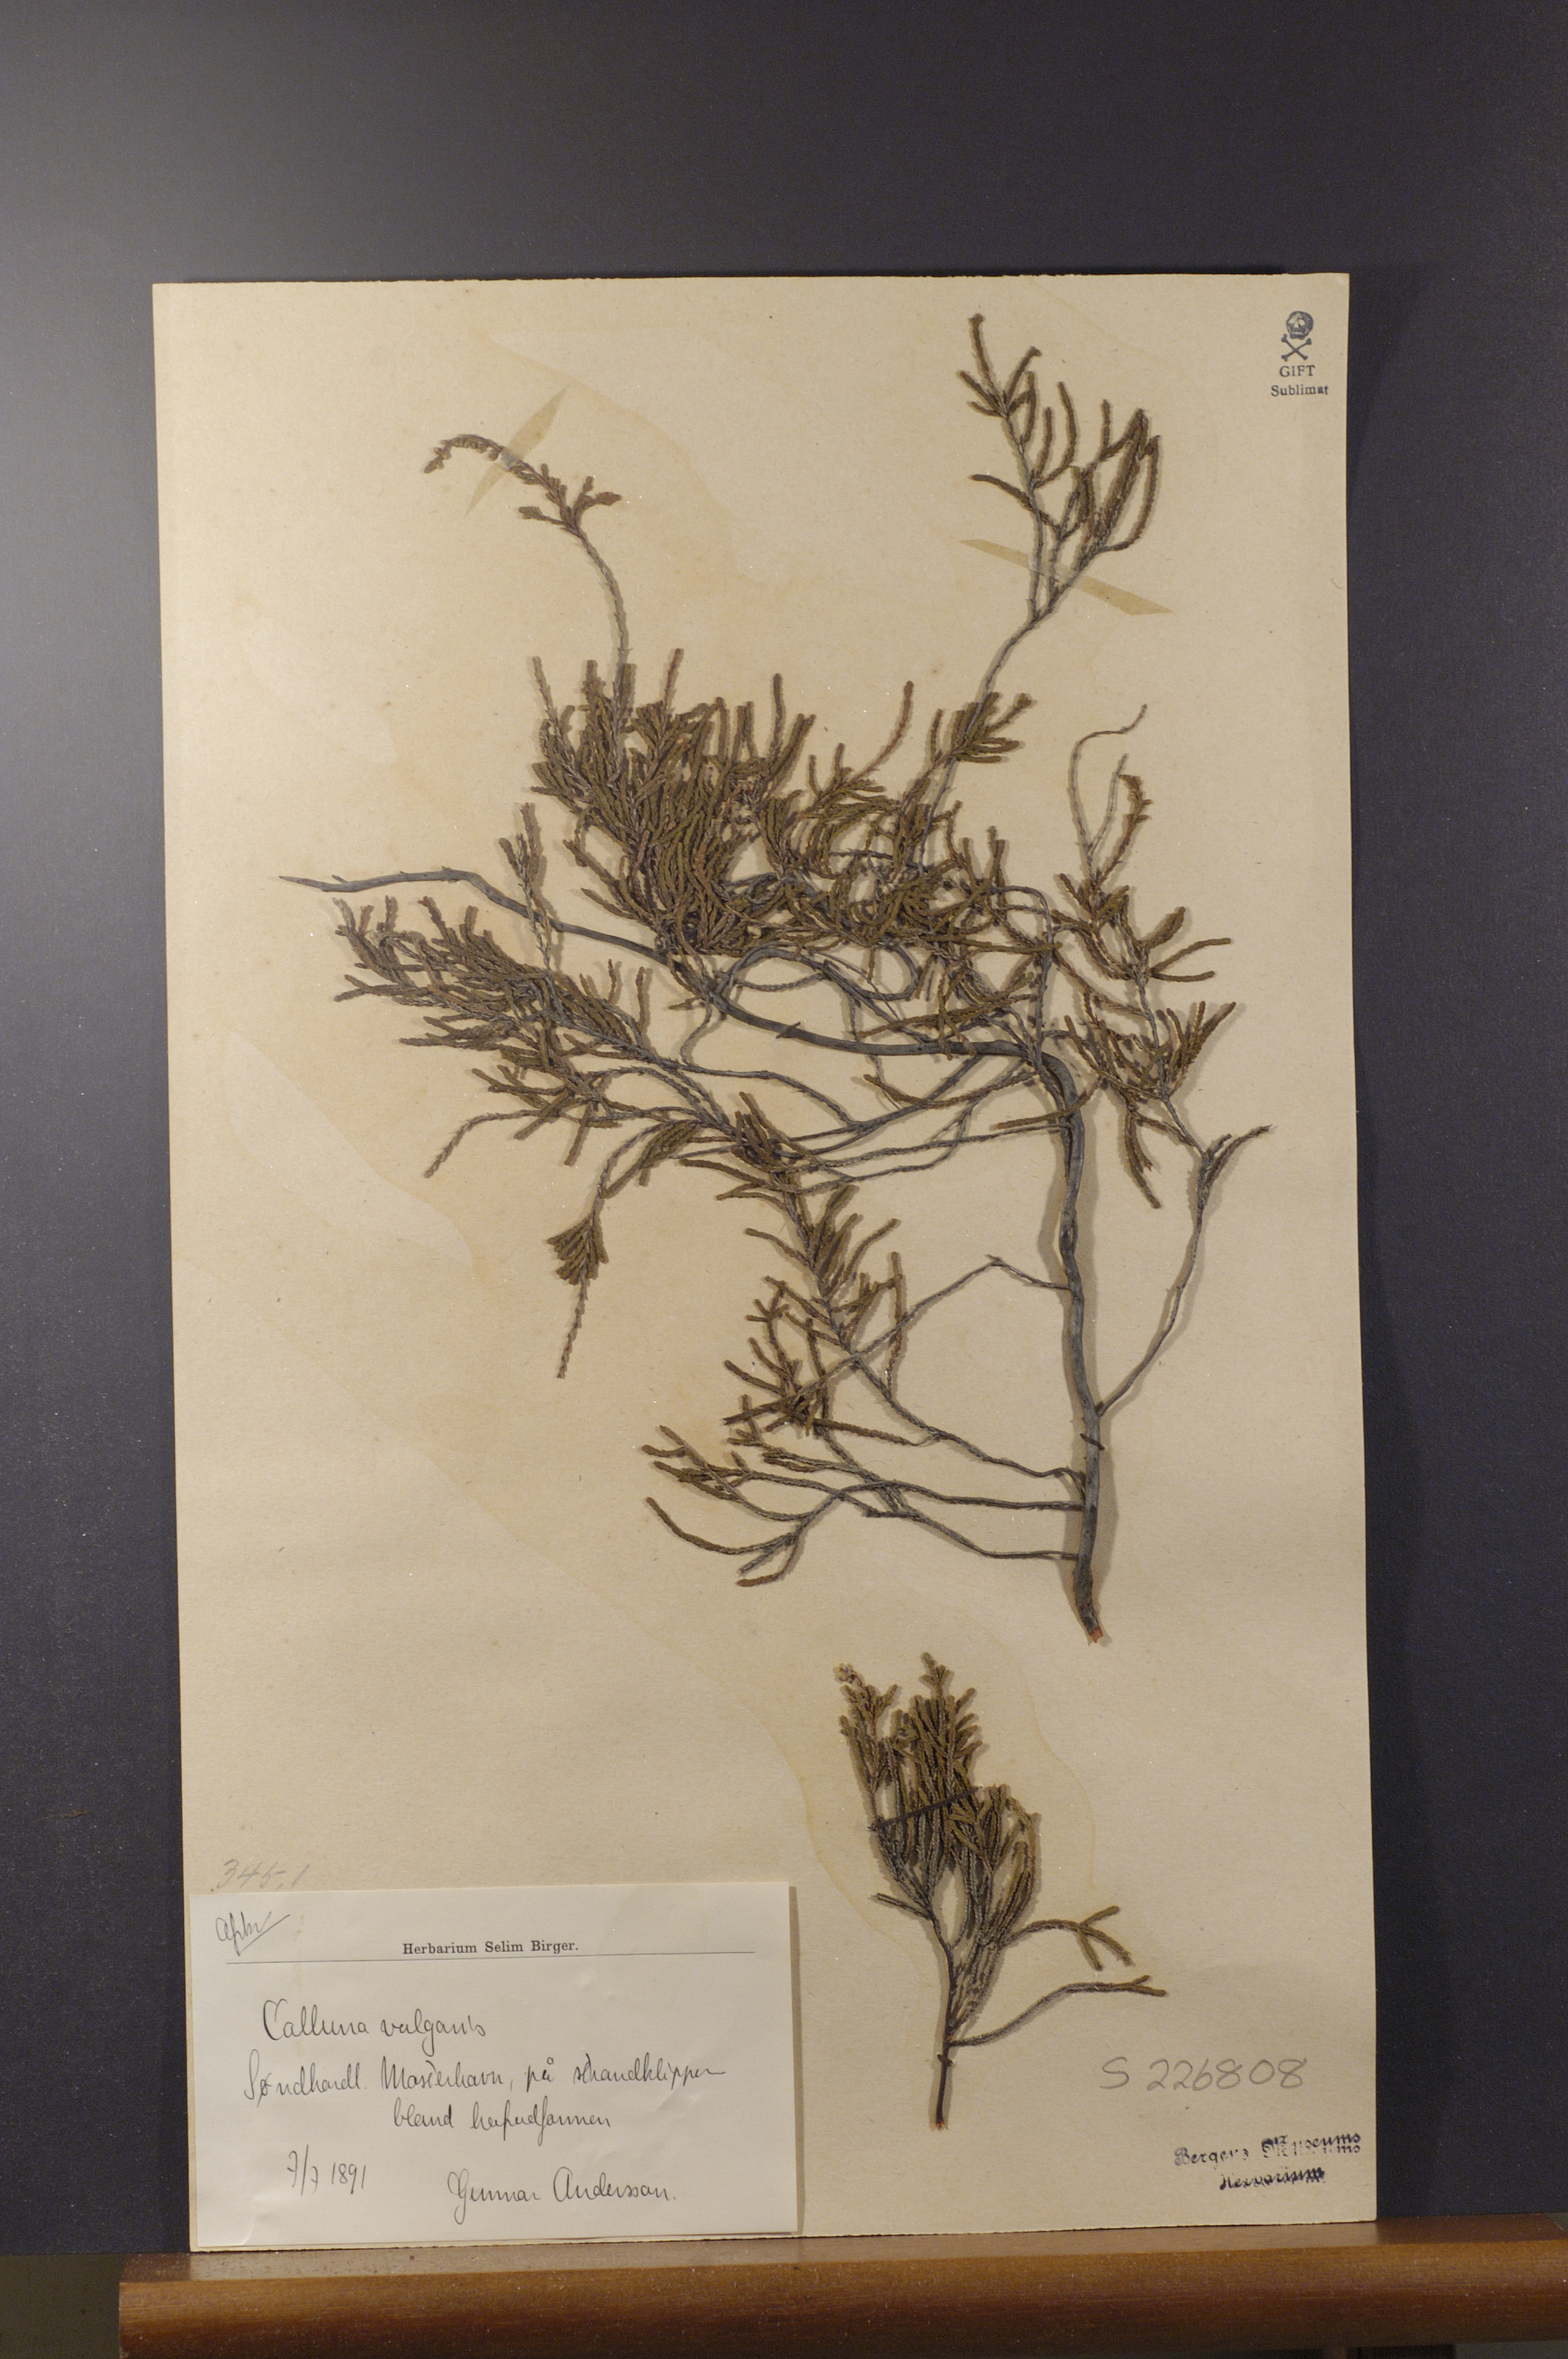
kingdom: Plantae
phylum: Tracheophyta
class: Magnoliopsida
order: Ericales
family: Ericaceae
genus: Calluna
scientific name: Calluna vulgaris
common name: Heather
